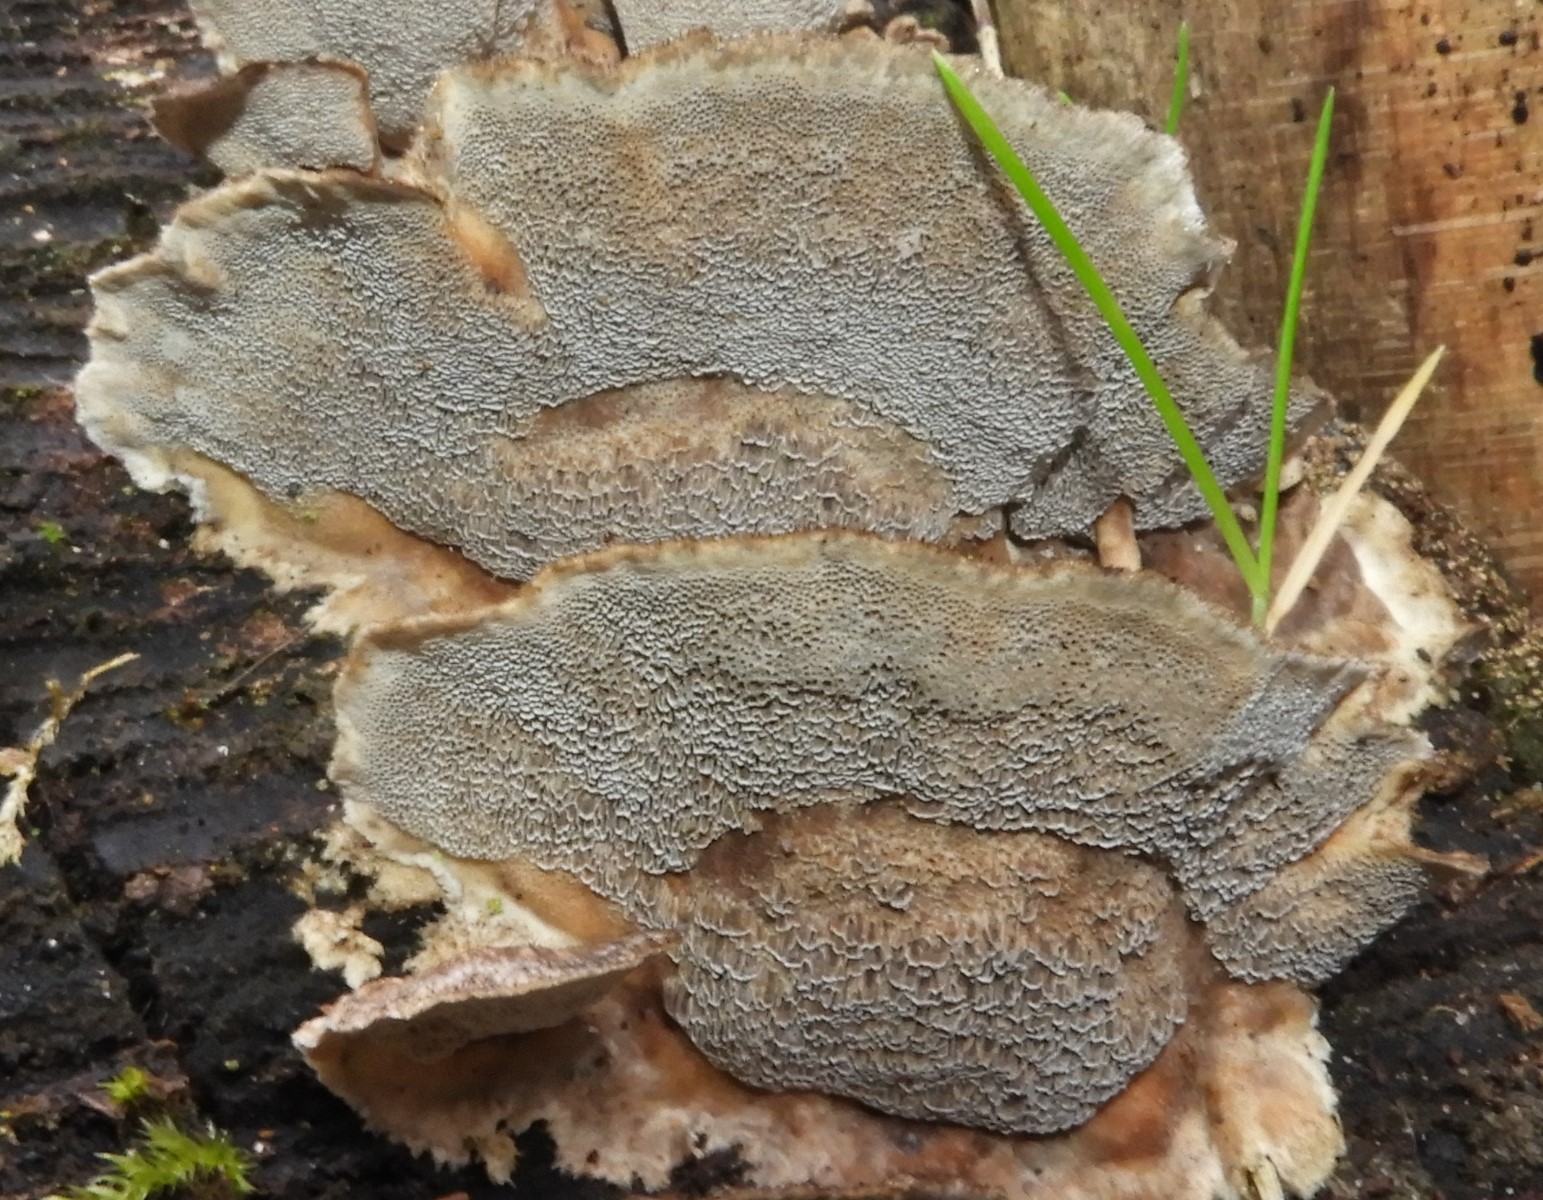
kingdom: Fungi
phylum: Basidiomycota
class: Agaricomycetes
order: Polyporales
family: Phanerochaetaceae
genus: Bjerkandera
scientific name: Bjerkandera adusta
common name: sveden sodporesvamp
